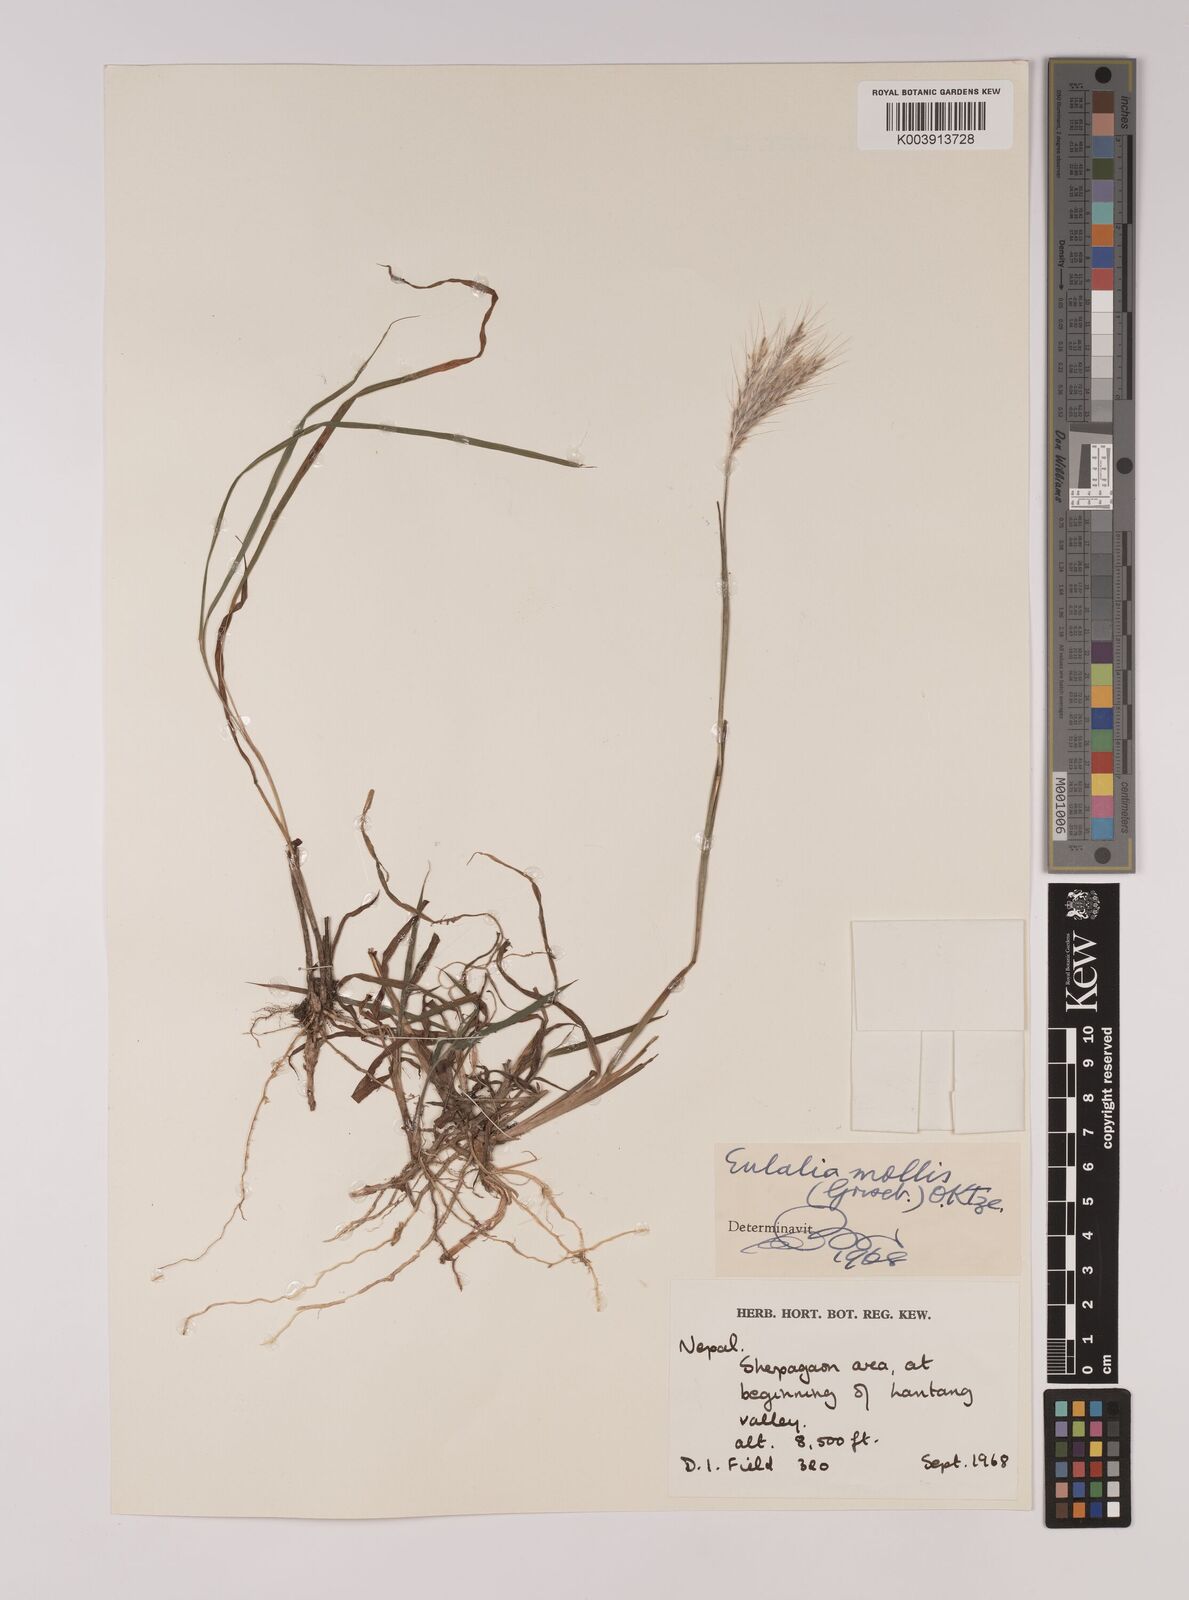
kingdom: Plantae
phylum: Tracheophyta
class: Liliopsida
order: Poales
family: Poaceae
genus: Eulalia
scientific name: Eulalia mollis
